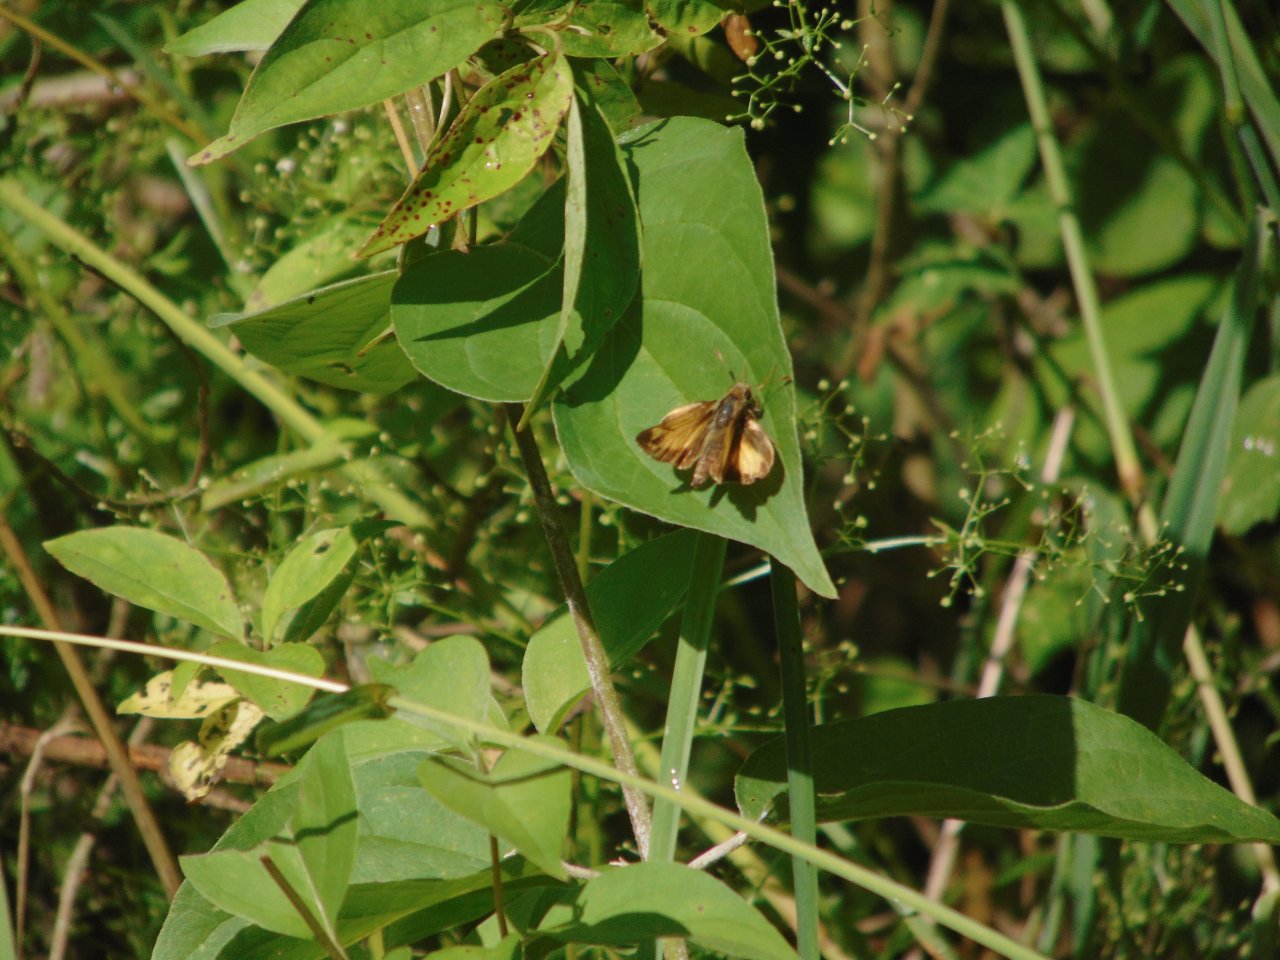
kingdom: Animalia
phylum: Arthropoda
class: Insecta
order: Lepidoptera
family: Hesperiidae
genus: Lon
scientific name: Lon zabulon
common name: Zabulon Skipper
